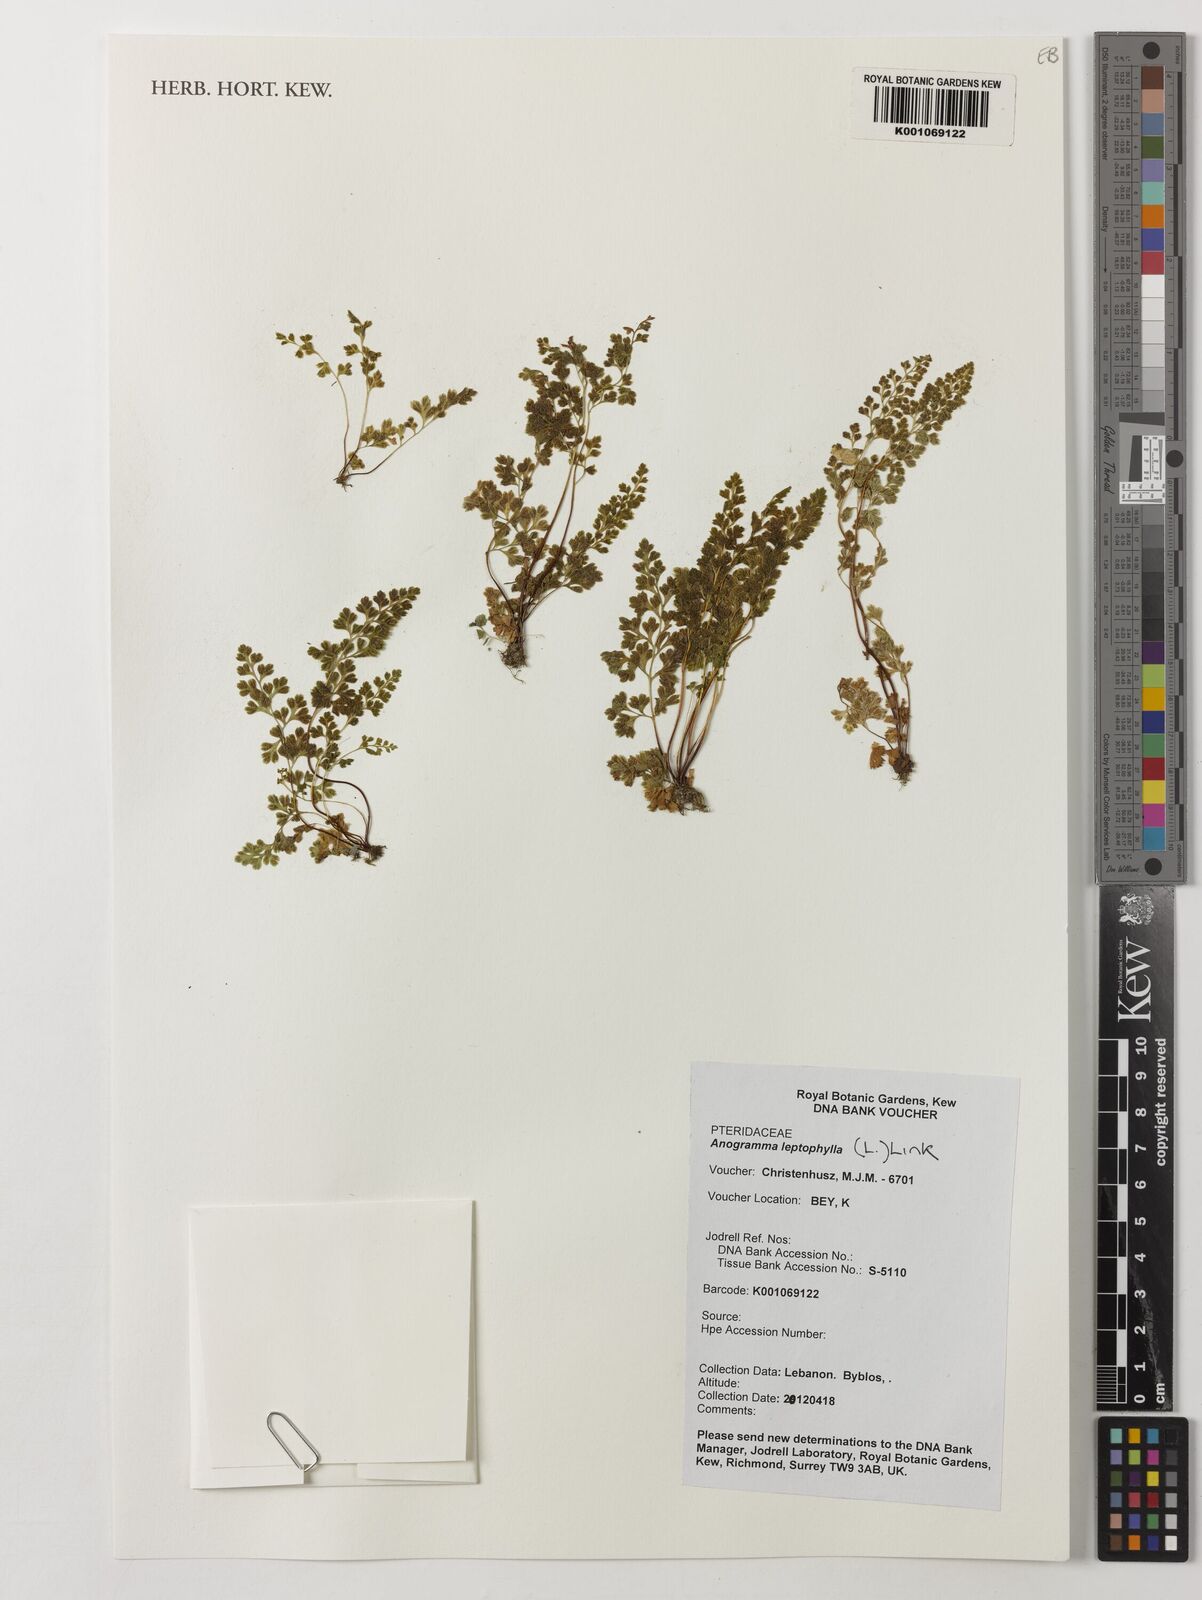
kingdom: Plantae
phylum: Tracheophyta
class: Polypodiopsida
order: Polypodiales
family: Pteridaceae
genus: Anogramma
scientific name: Anogramma leptophylla
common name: Jersey fern
